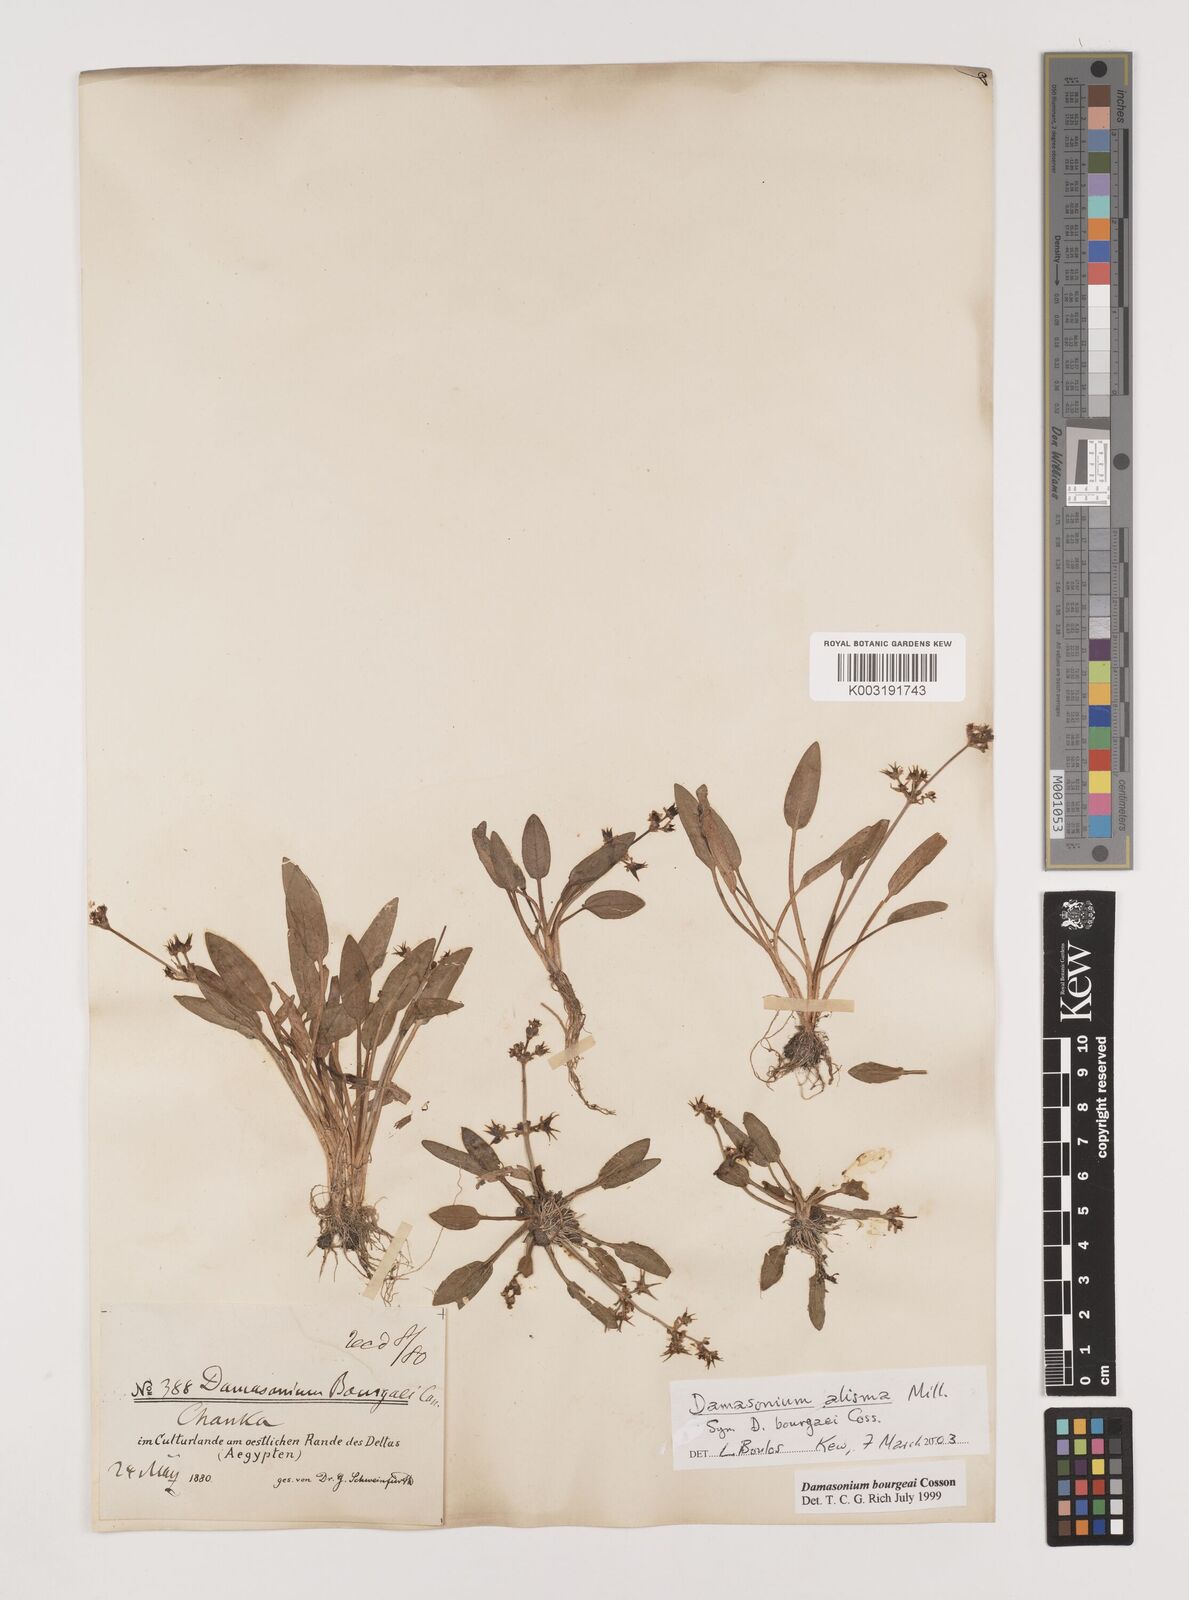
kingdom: Plantae
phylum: Tracheophyta
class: Liliopsida
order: Alismatales
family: Alismataceae
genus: Damasonium
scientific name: Damasonium alisma
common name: Starfruit
